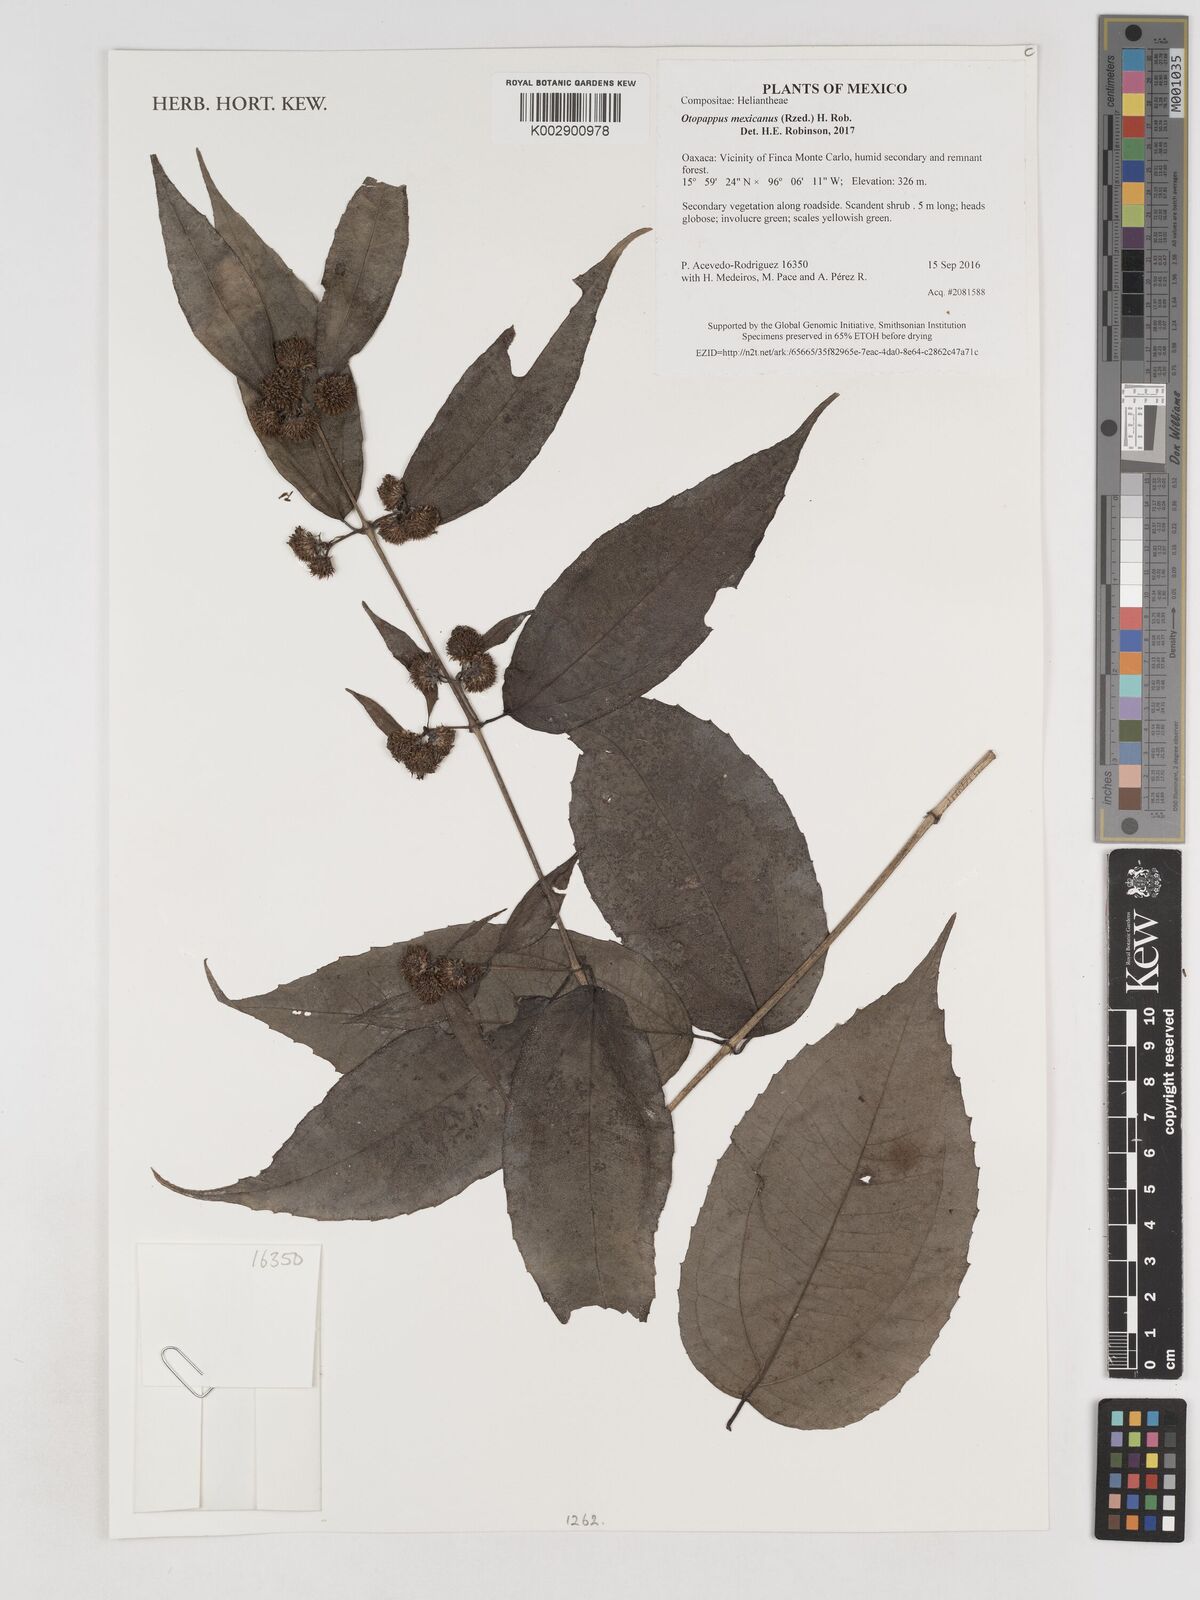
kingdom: Plantae
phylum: Tracheophyta
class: Magnoliopsida
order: Asterales
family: Asteraceae
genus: Otopappus
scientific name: Otopappus mexicanus
